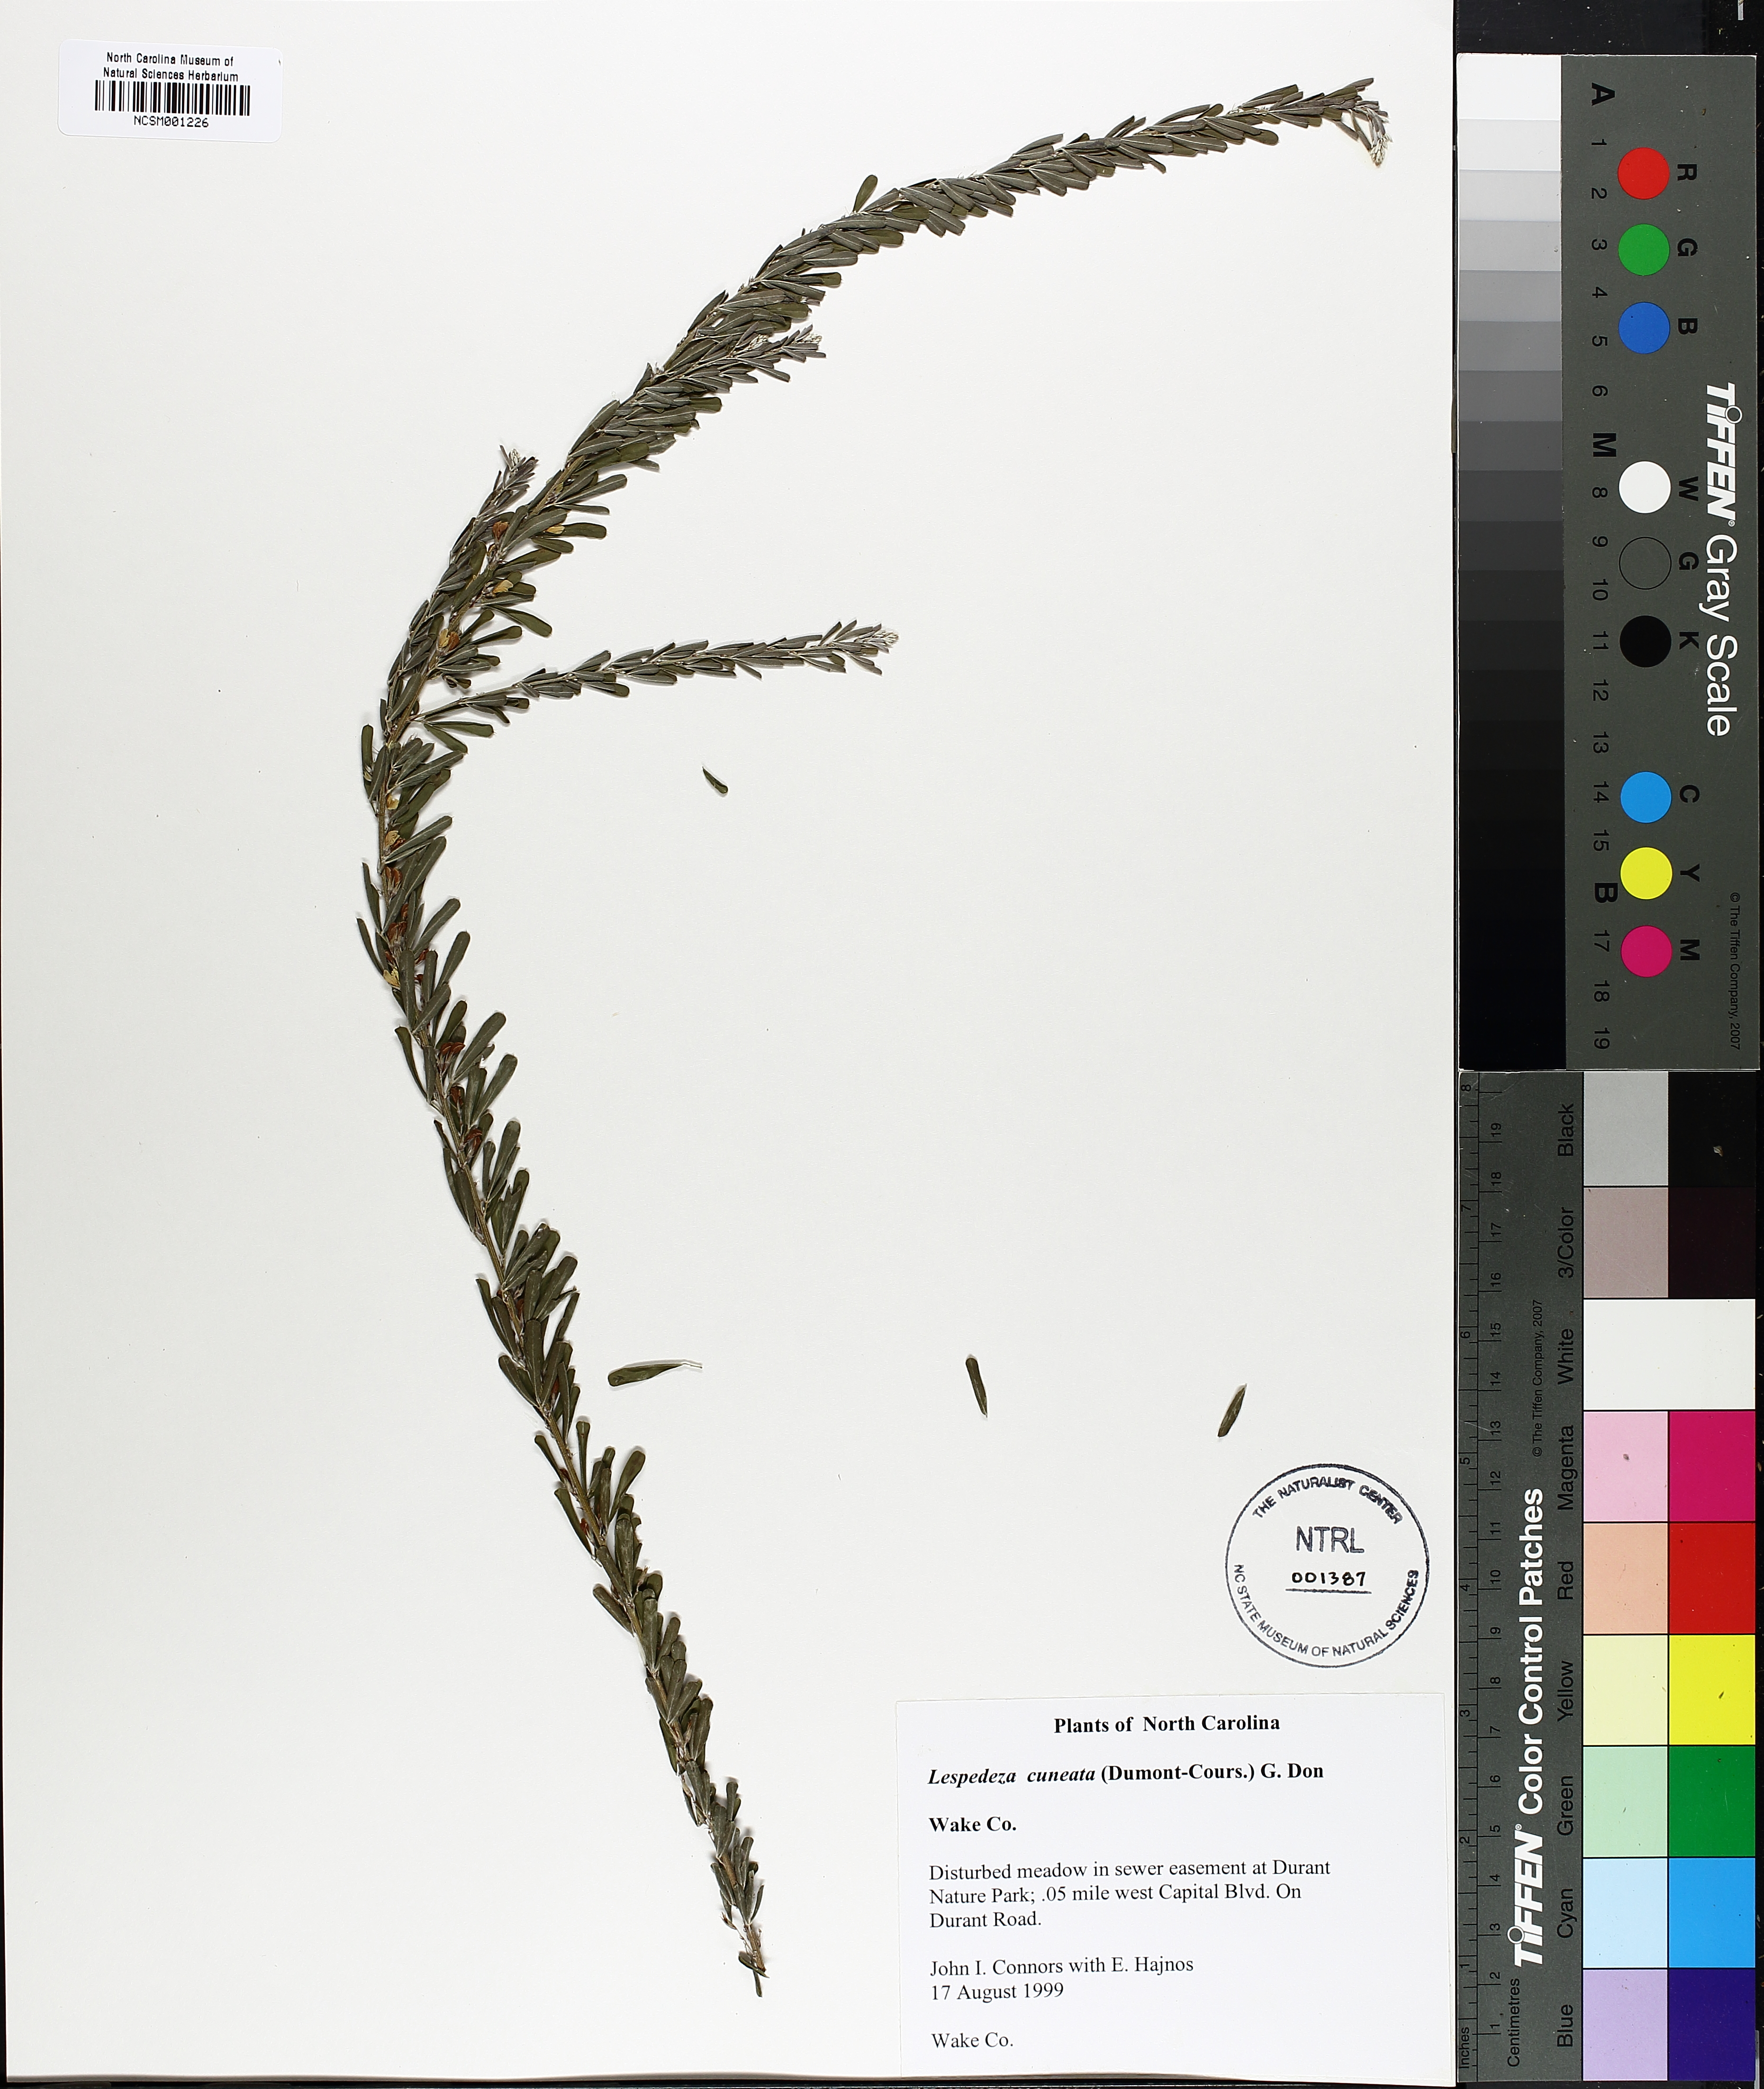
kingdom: Plantae
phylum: Tracheophyta
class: Magnoliopsida
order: Fabales
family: Fabaceae
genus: Lespedeza
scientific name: Lespedeza cuneata
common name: Chinese bush-clover
